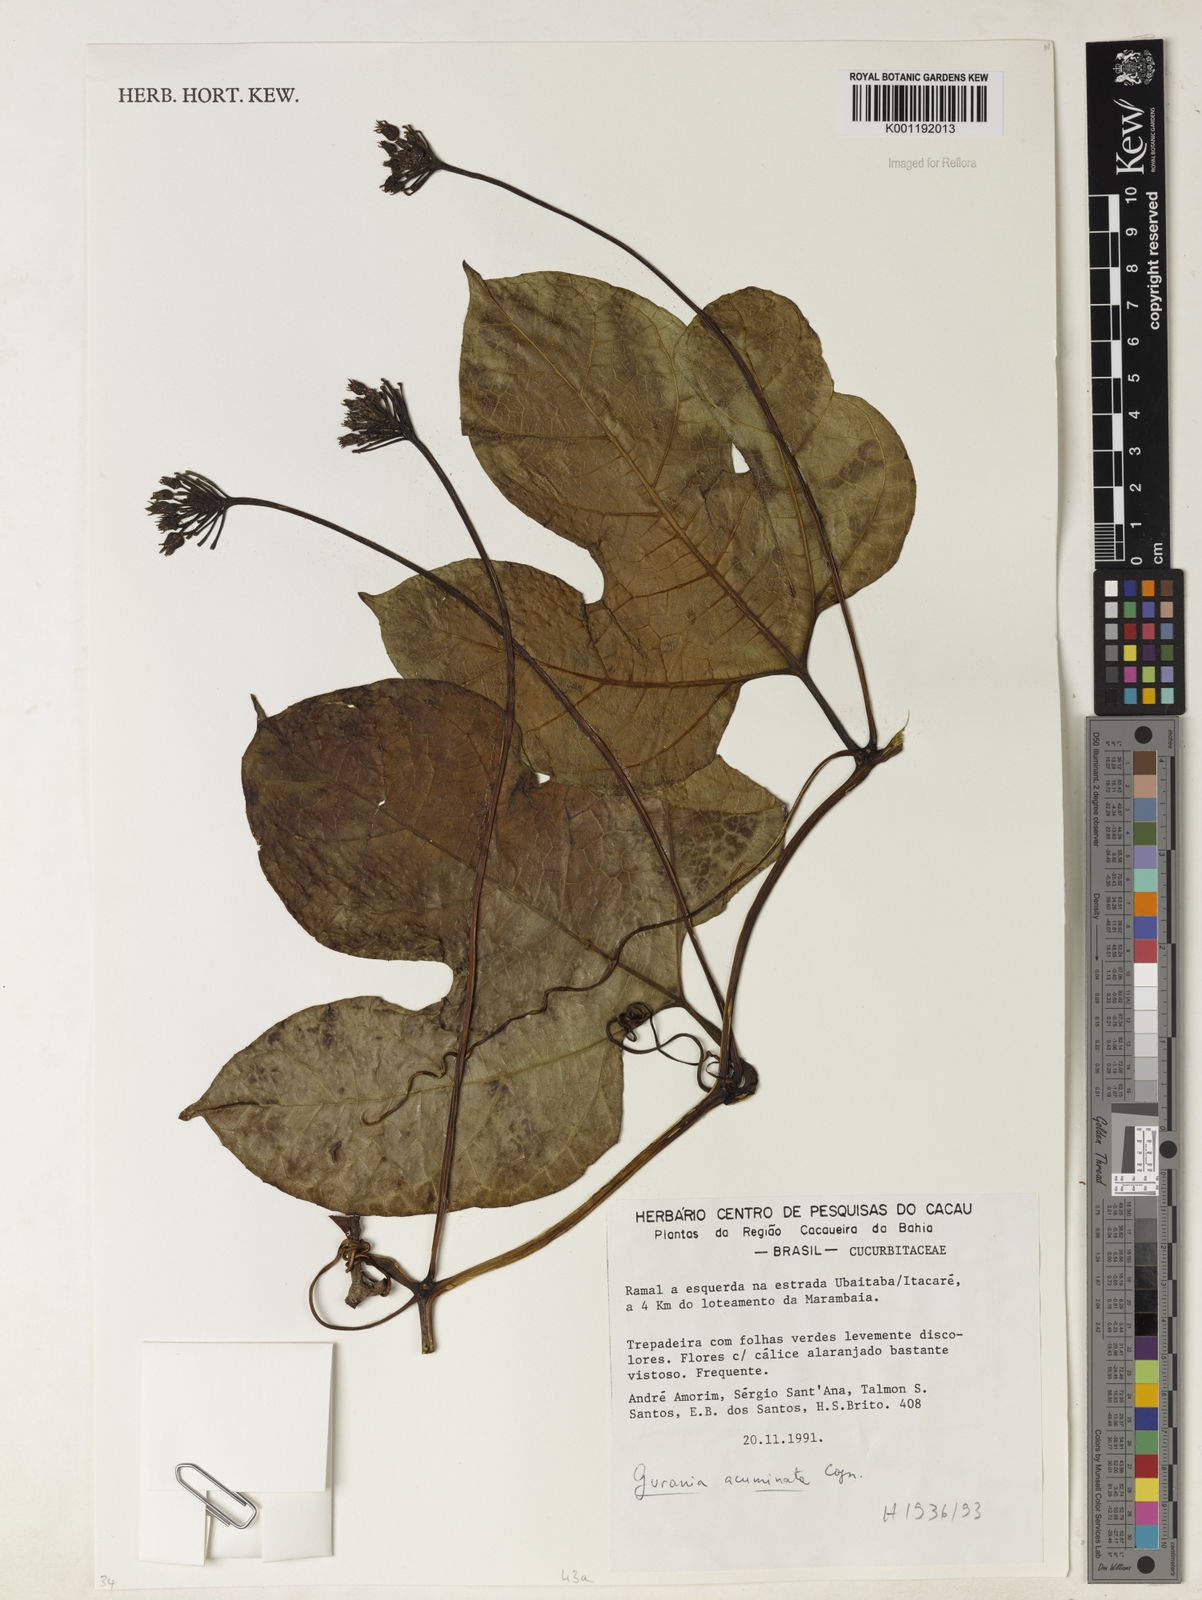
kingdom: Plantae
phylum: Tracheophyta
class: Magnoliopsida
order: Cucurbitales
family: Cucurbitaceae
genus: Gurania
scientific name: Gurania acuminata
